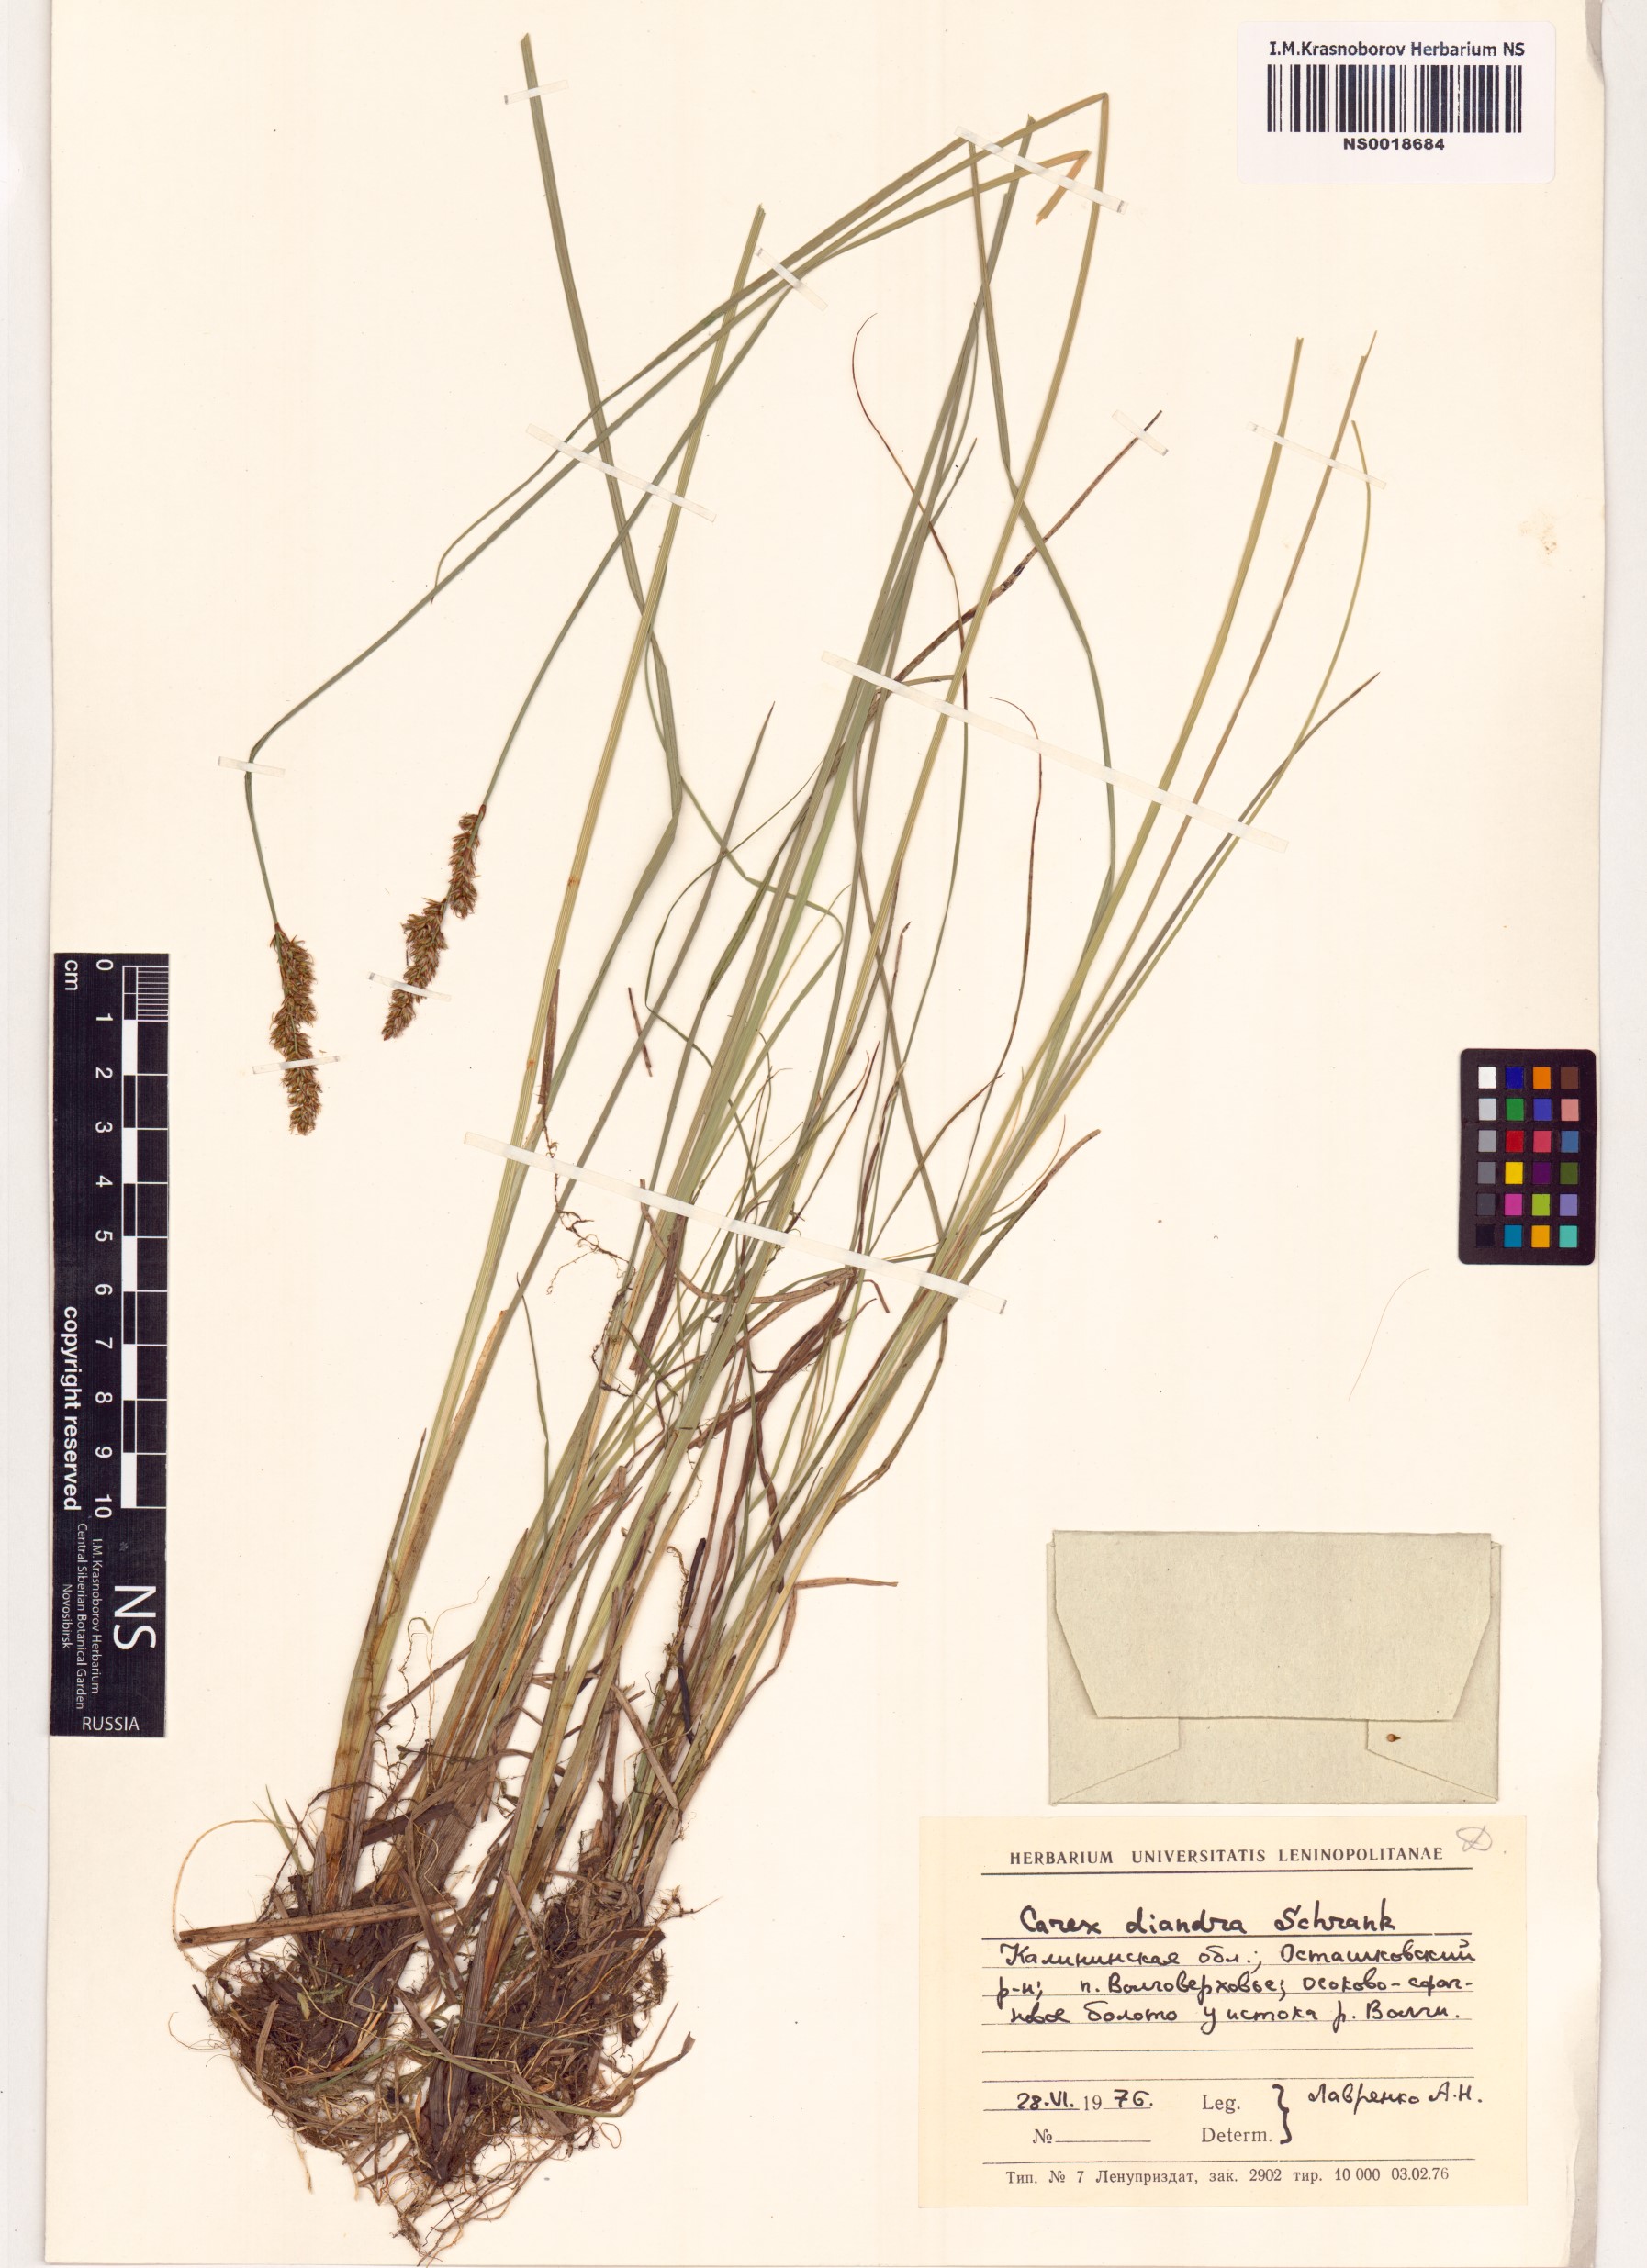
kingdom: Plantae
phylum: Tracheophyta
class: Liliopsida
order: Poales
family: Cyperaceae
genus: Carex
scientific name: Carex diandra
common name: Lesser tussock-sedge
